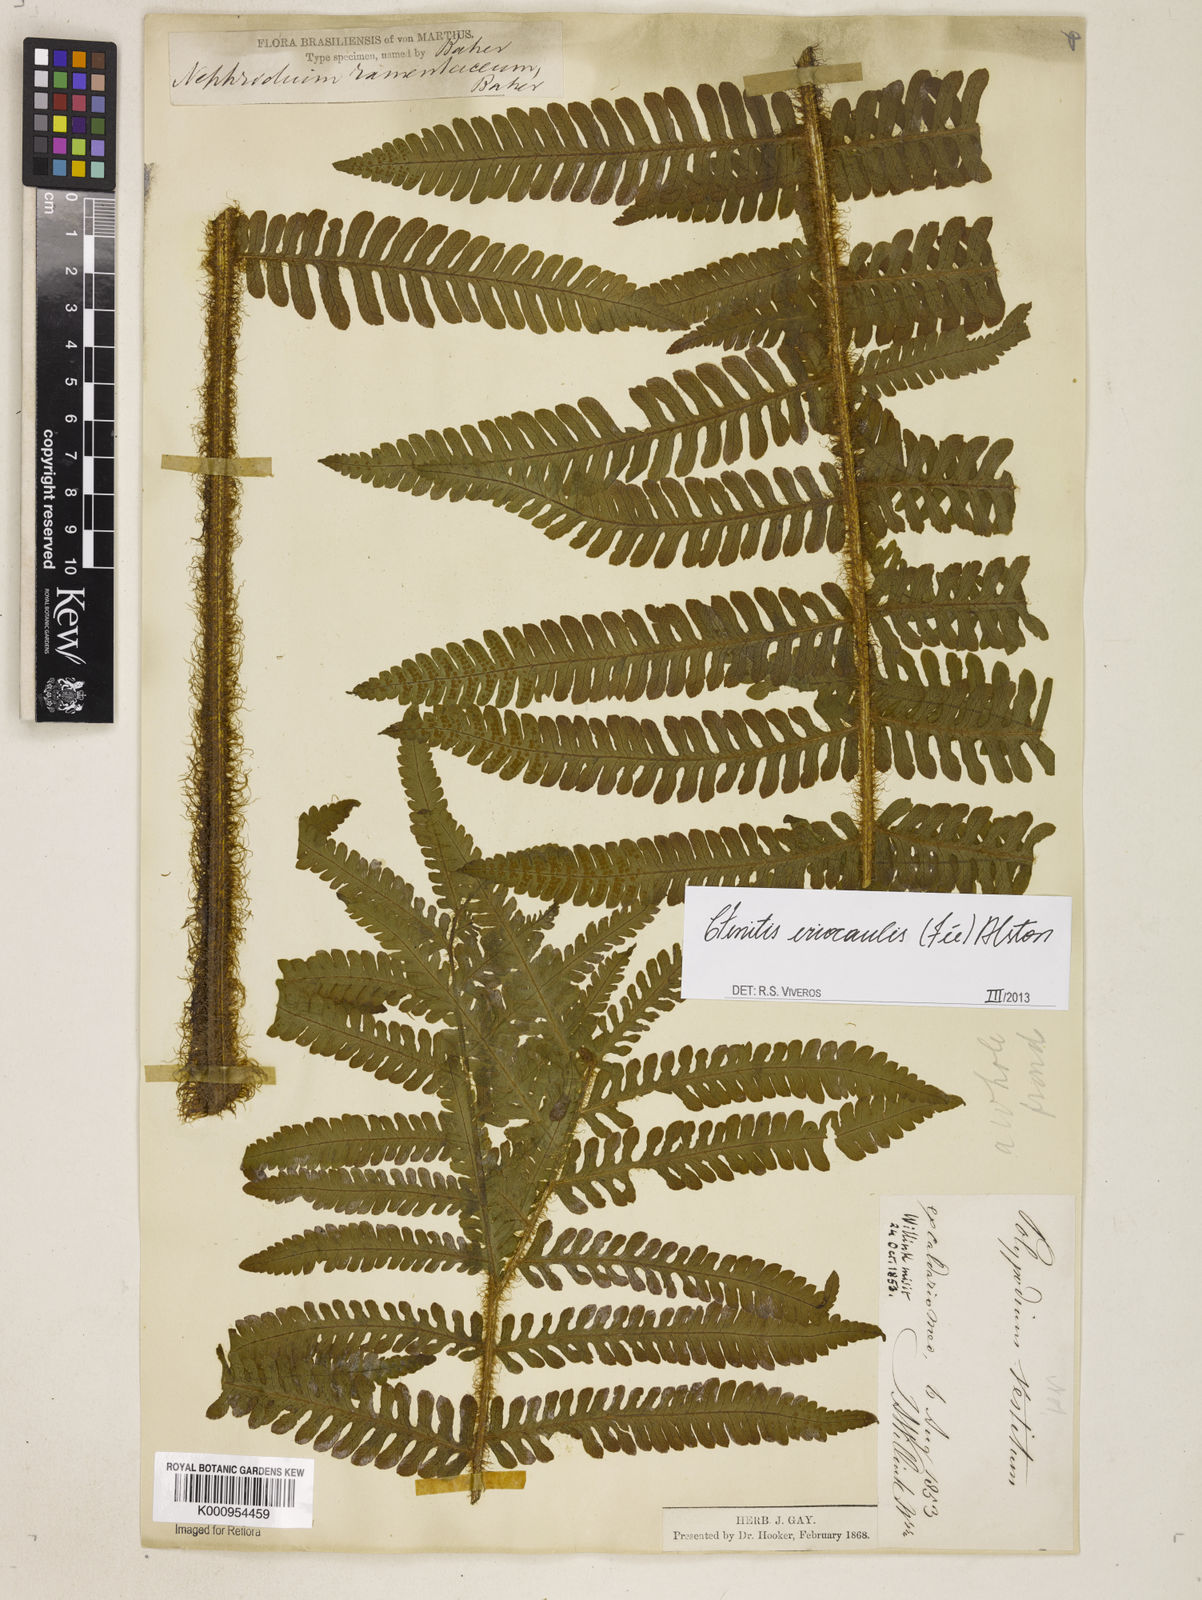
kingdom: Plantae
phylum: Tracheophyta
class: Polypodiopsida
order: Polypodiales
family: Dryopteridaceae
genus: Ctenitis
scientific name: Ctenitis
